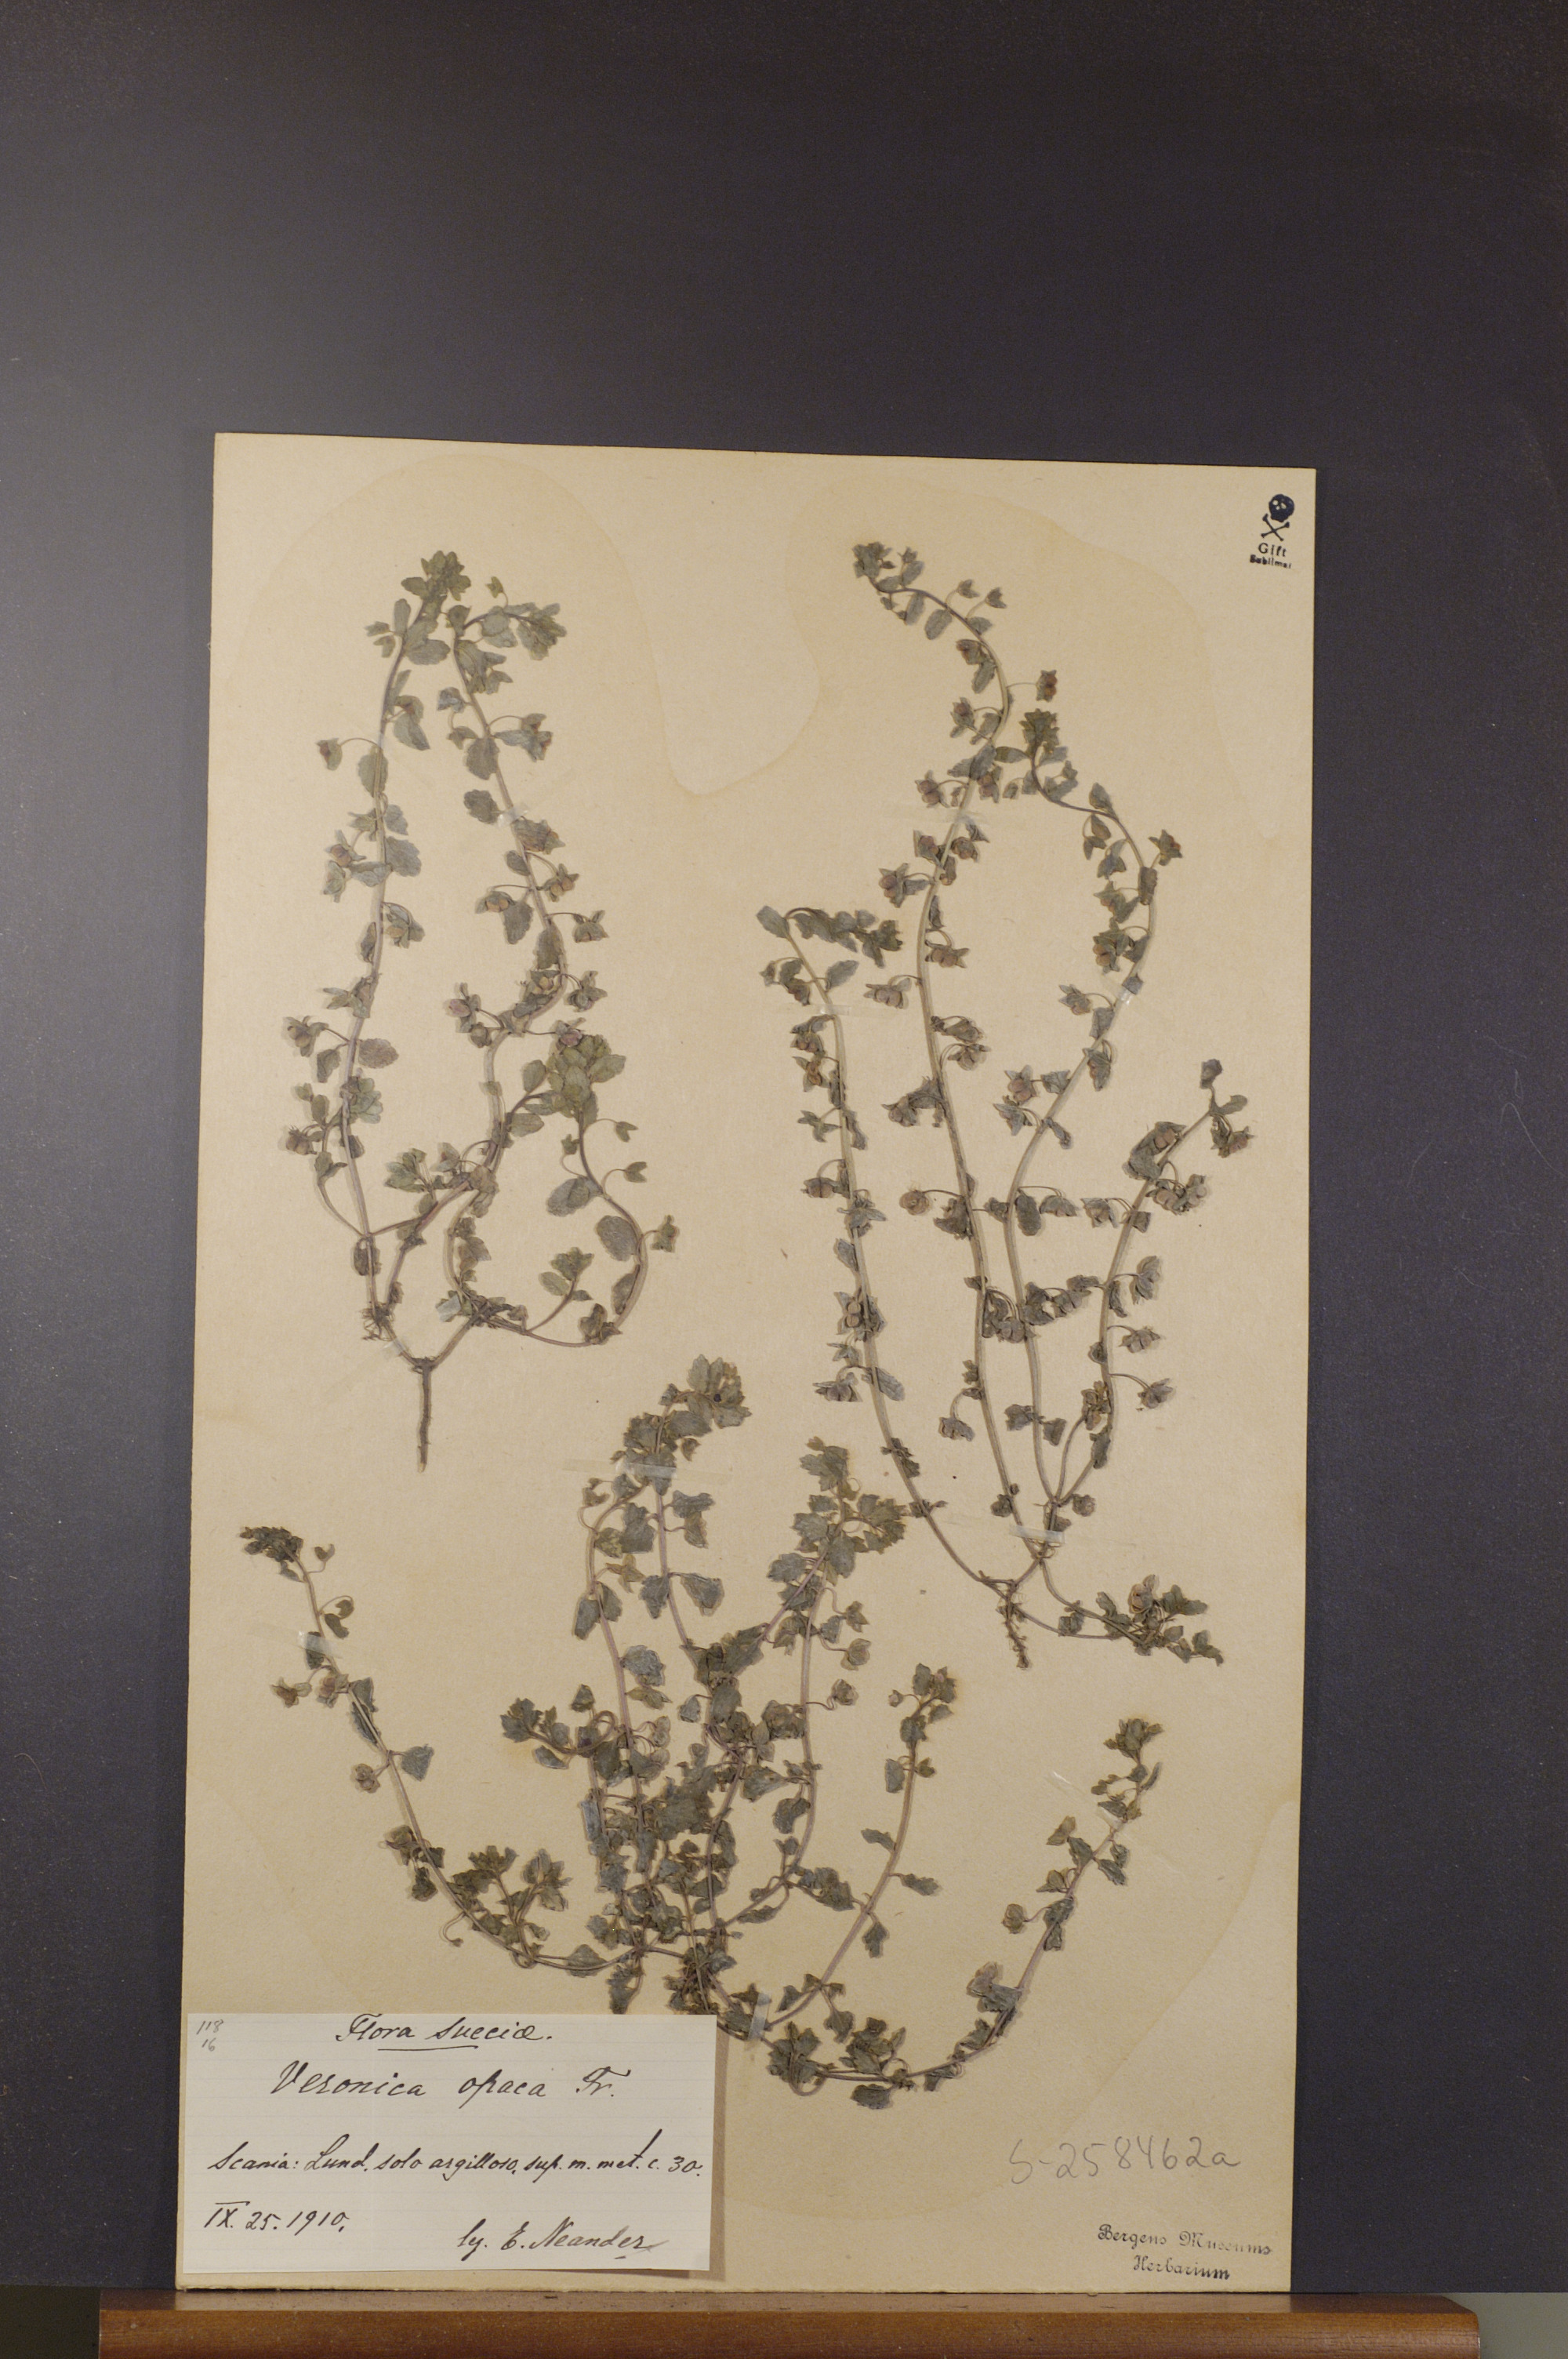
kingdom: Plantae
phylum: Tracheophyta
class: Magnoliopsida
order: Lamiales
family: Plantaginaceae
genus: Veronica
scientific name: Veronica opaca
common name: Dark speedwell
